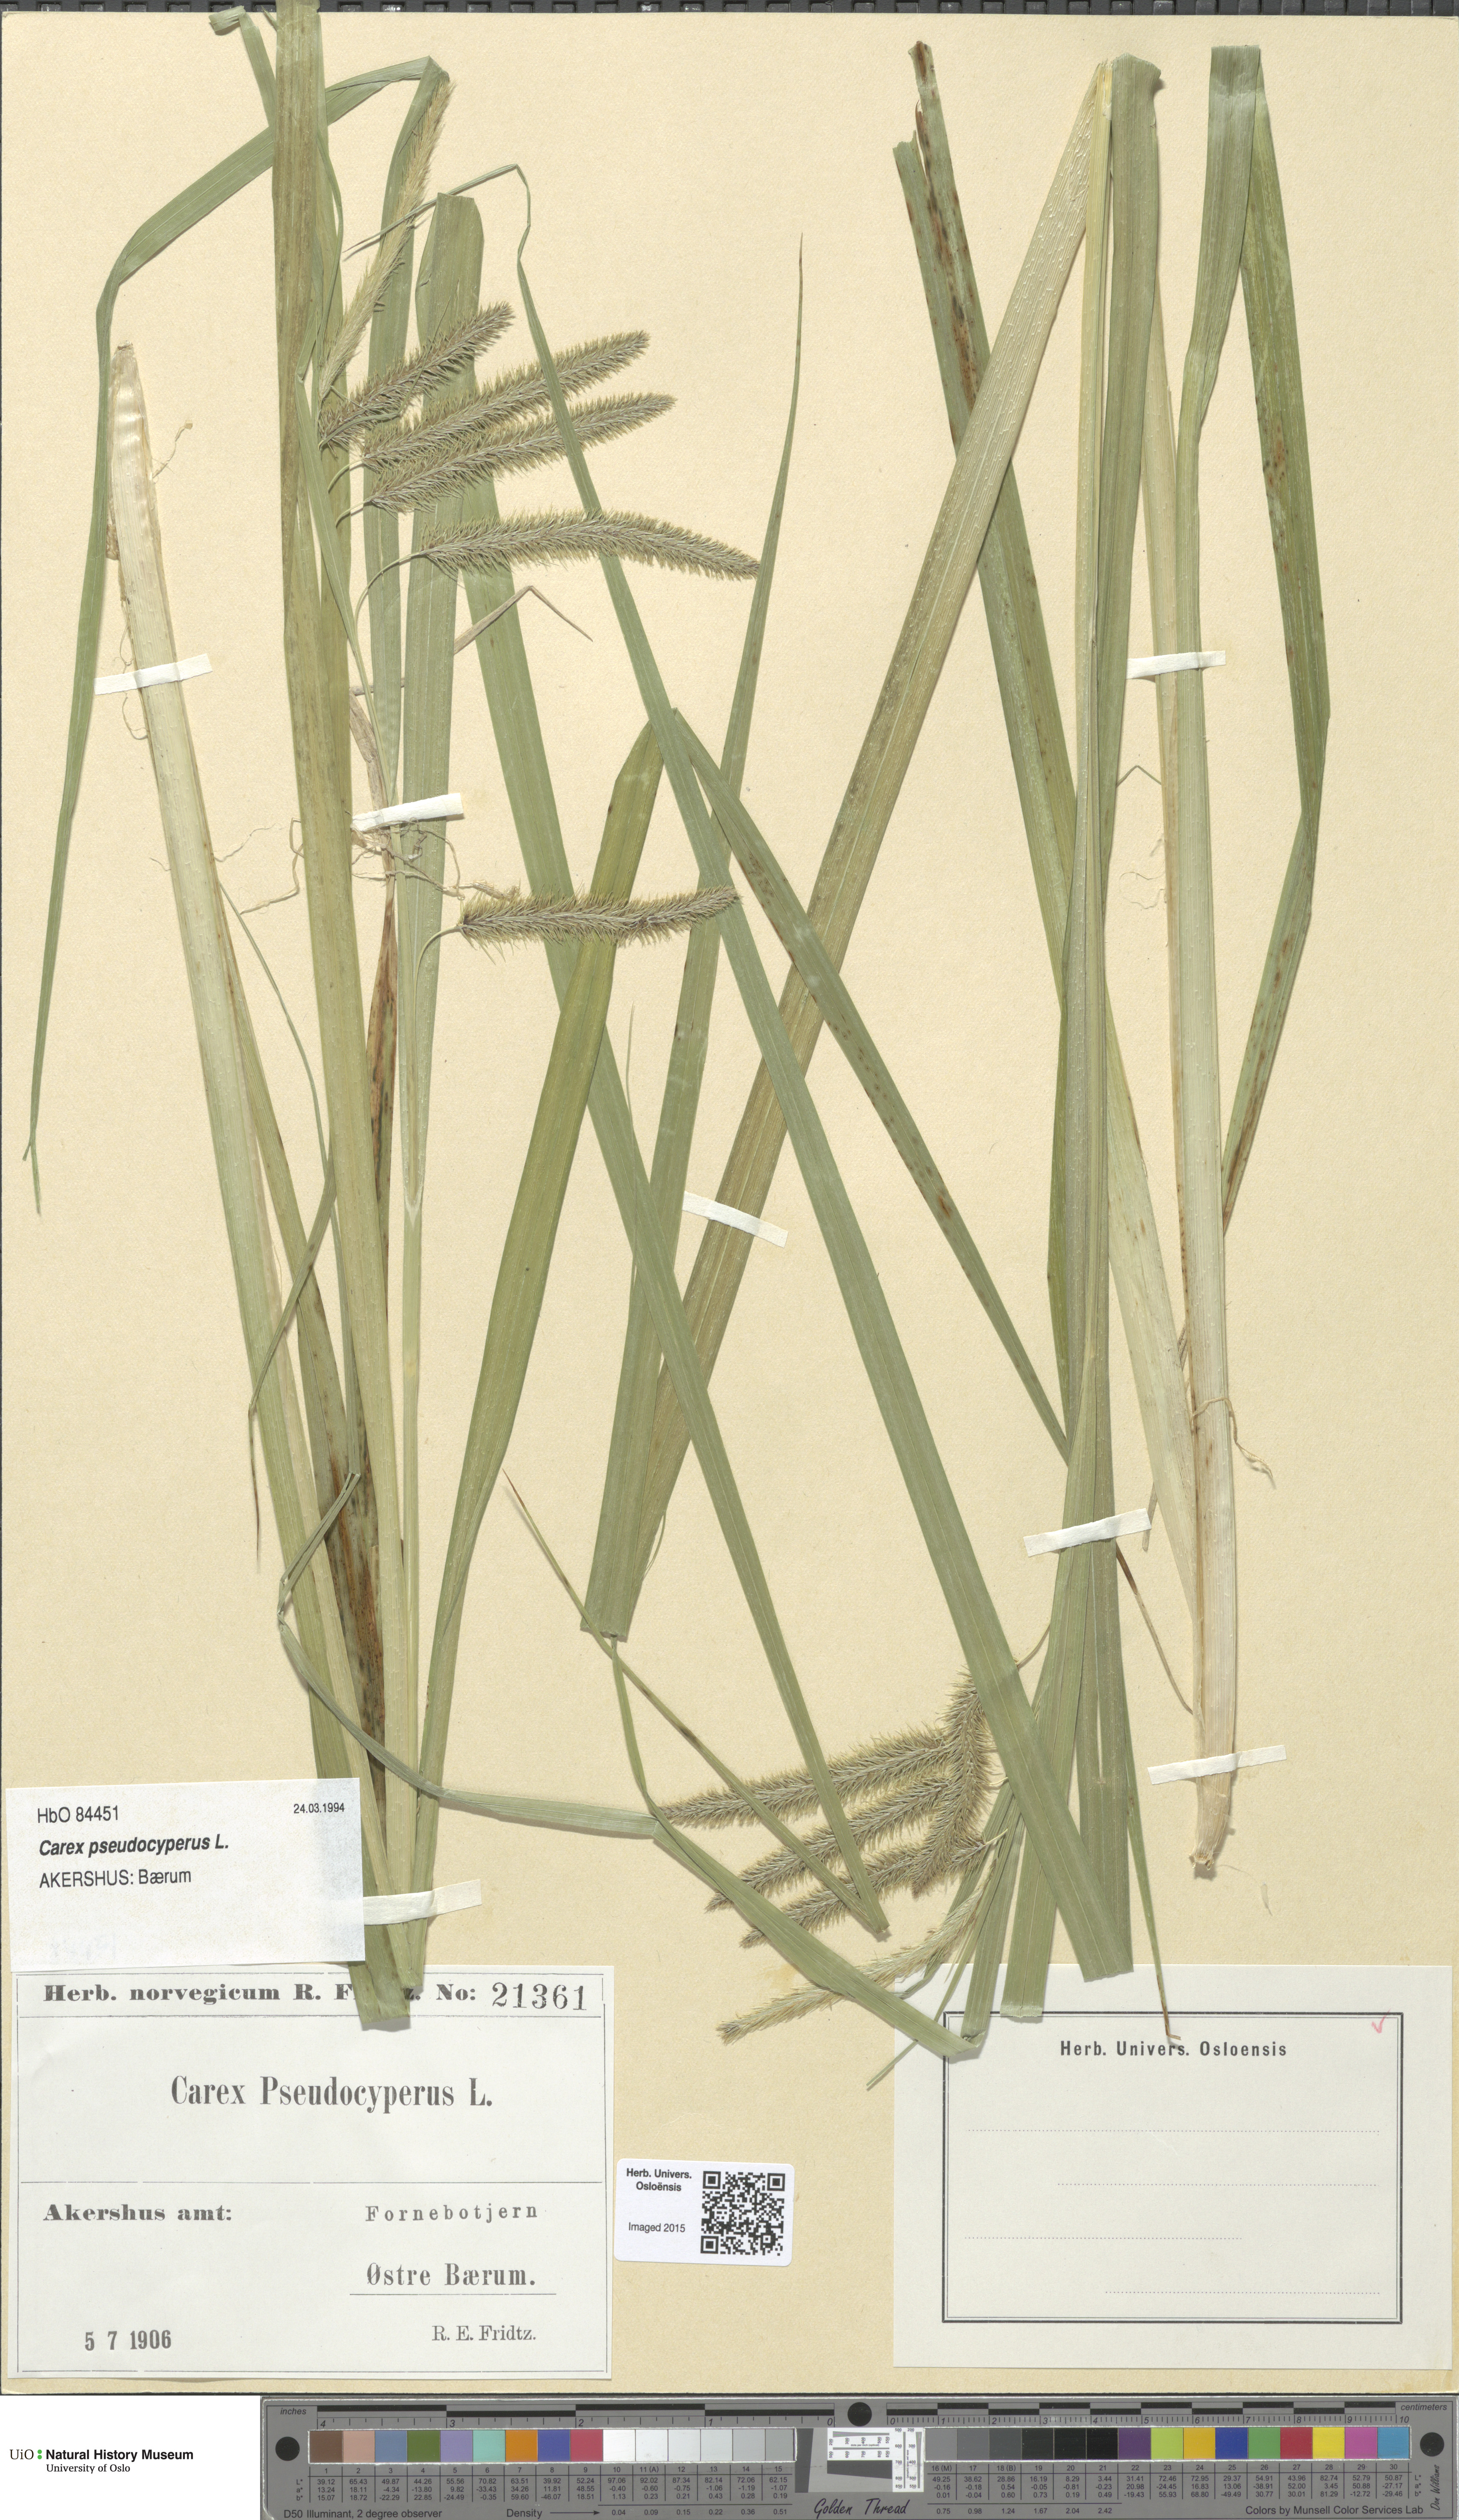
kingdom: Plantae
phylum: Tracheophyta
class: Liliopsida
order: Poales
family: Cyperaceae
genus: Carex
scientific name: Carex pseudocyperus
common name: Cyperus sedge
